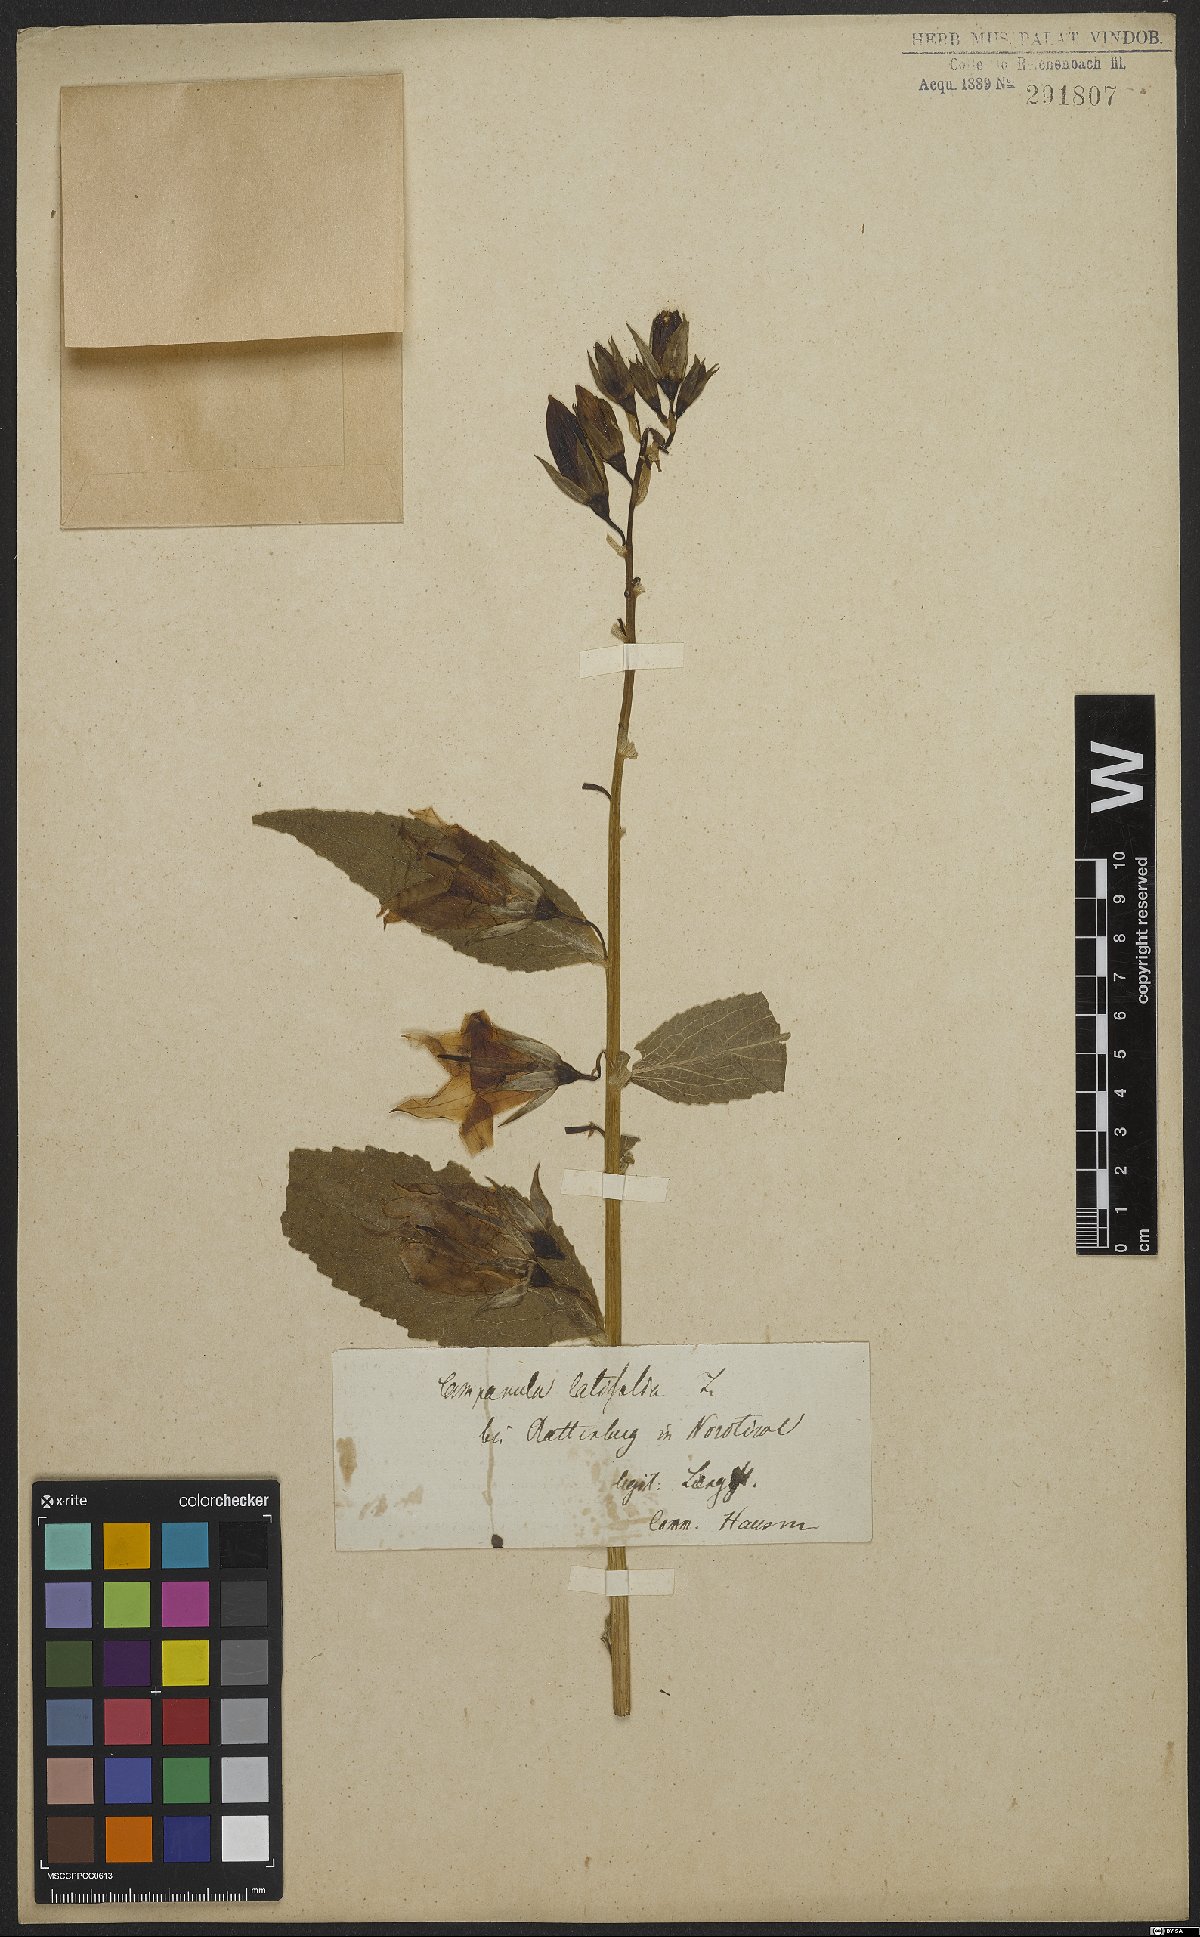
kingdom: Plantae
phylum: Tracheophyta
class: Magnoliopsida
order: Asterales
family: Campanulaceae
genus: Campanula
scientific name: Campanula latifolia
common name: Giant bellflower
